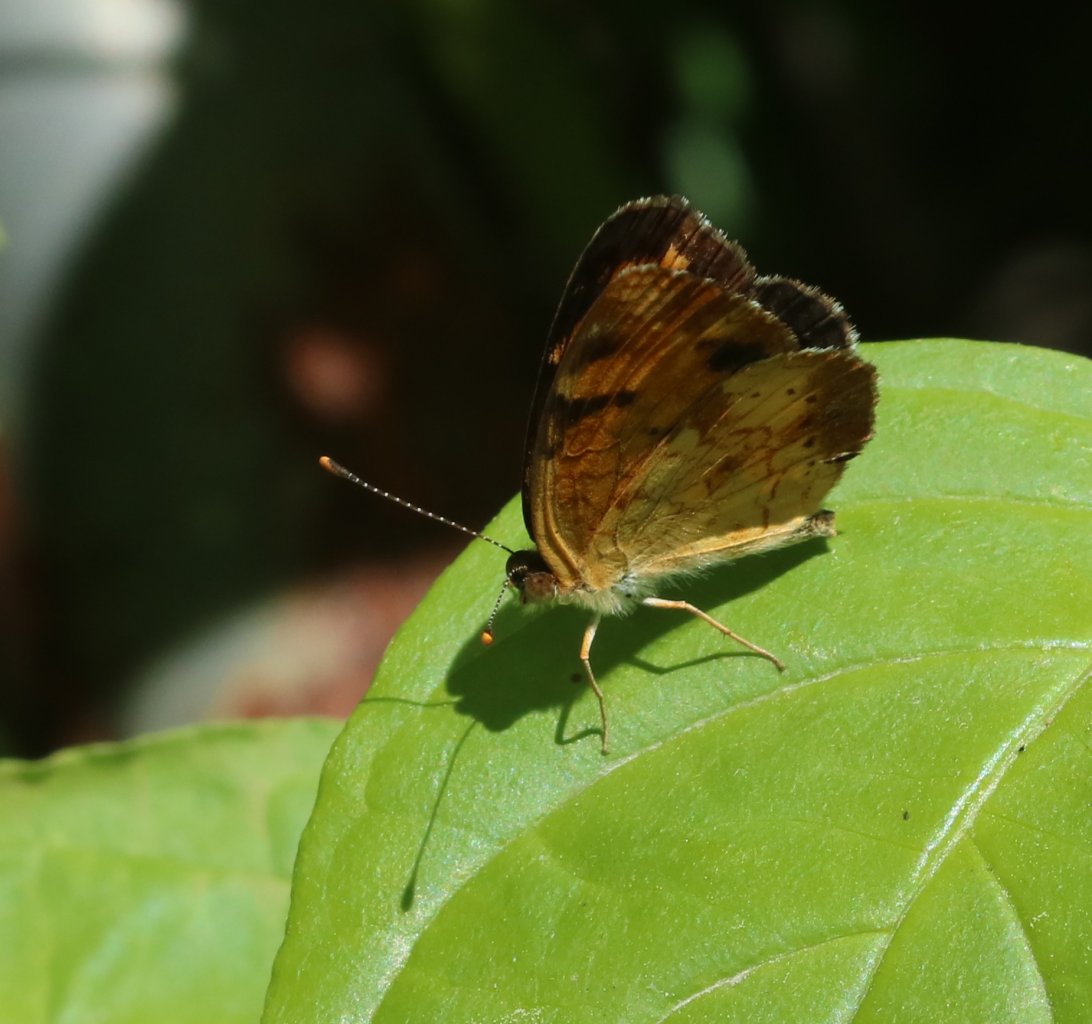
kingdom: Animalia
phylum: Arthropoda
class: Insecta
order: Lepidoptera
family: Nymphalidae
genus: Phyciodes
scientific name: Phyciodes tharos
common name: Northern Crescent
